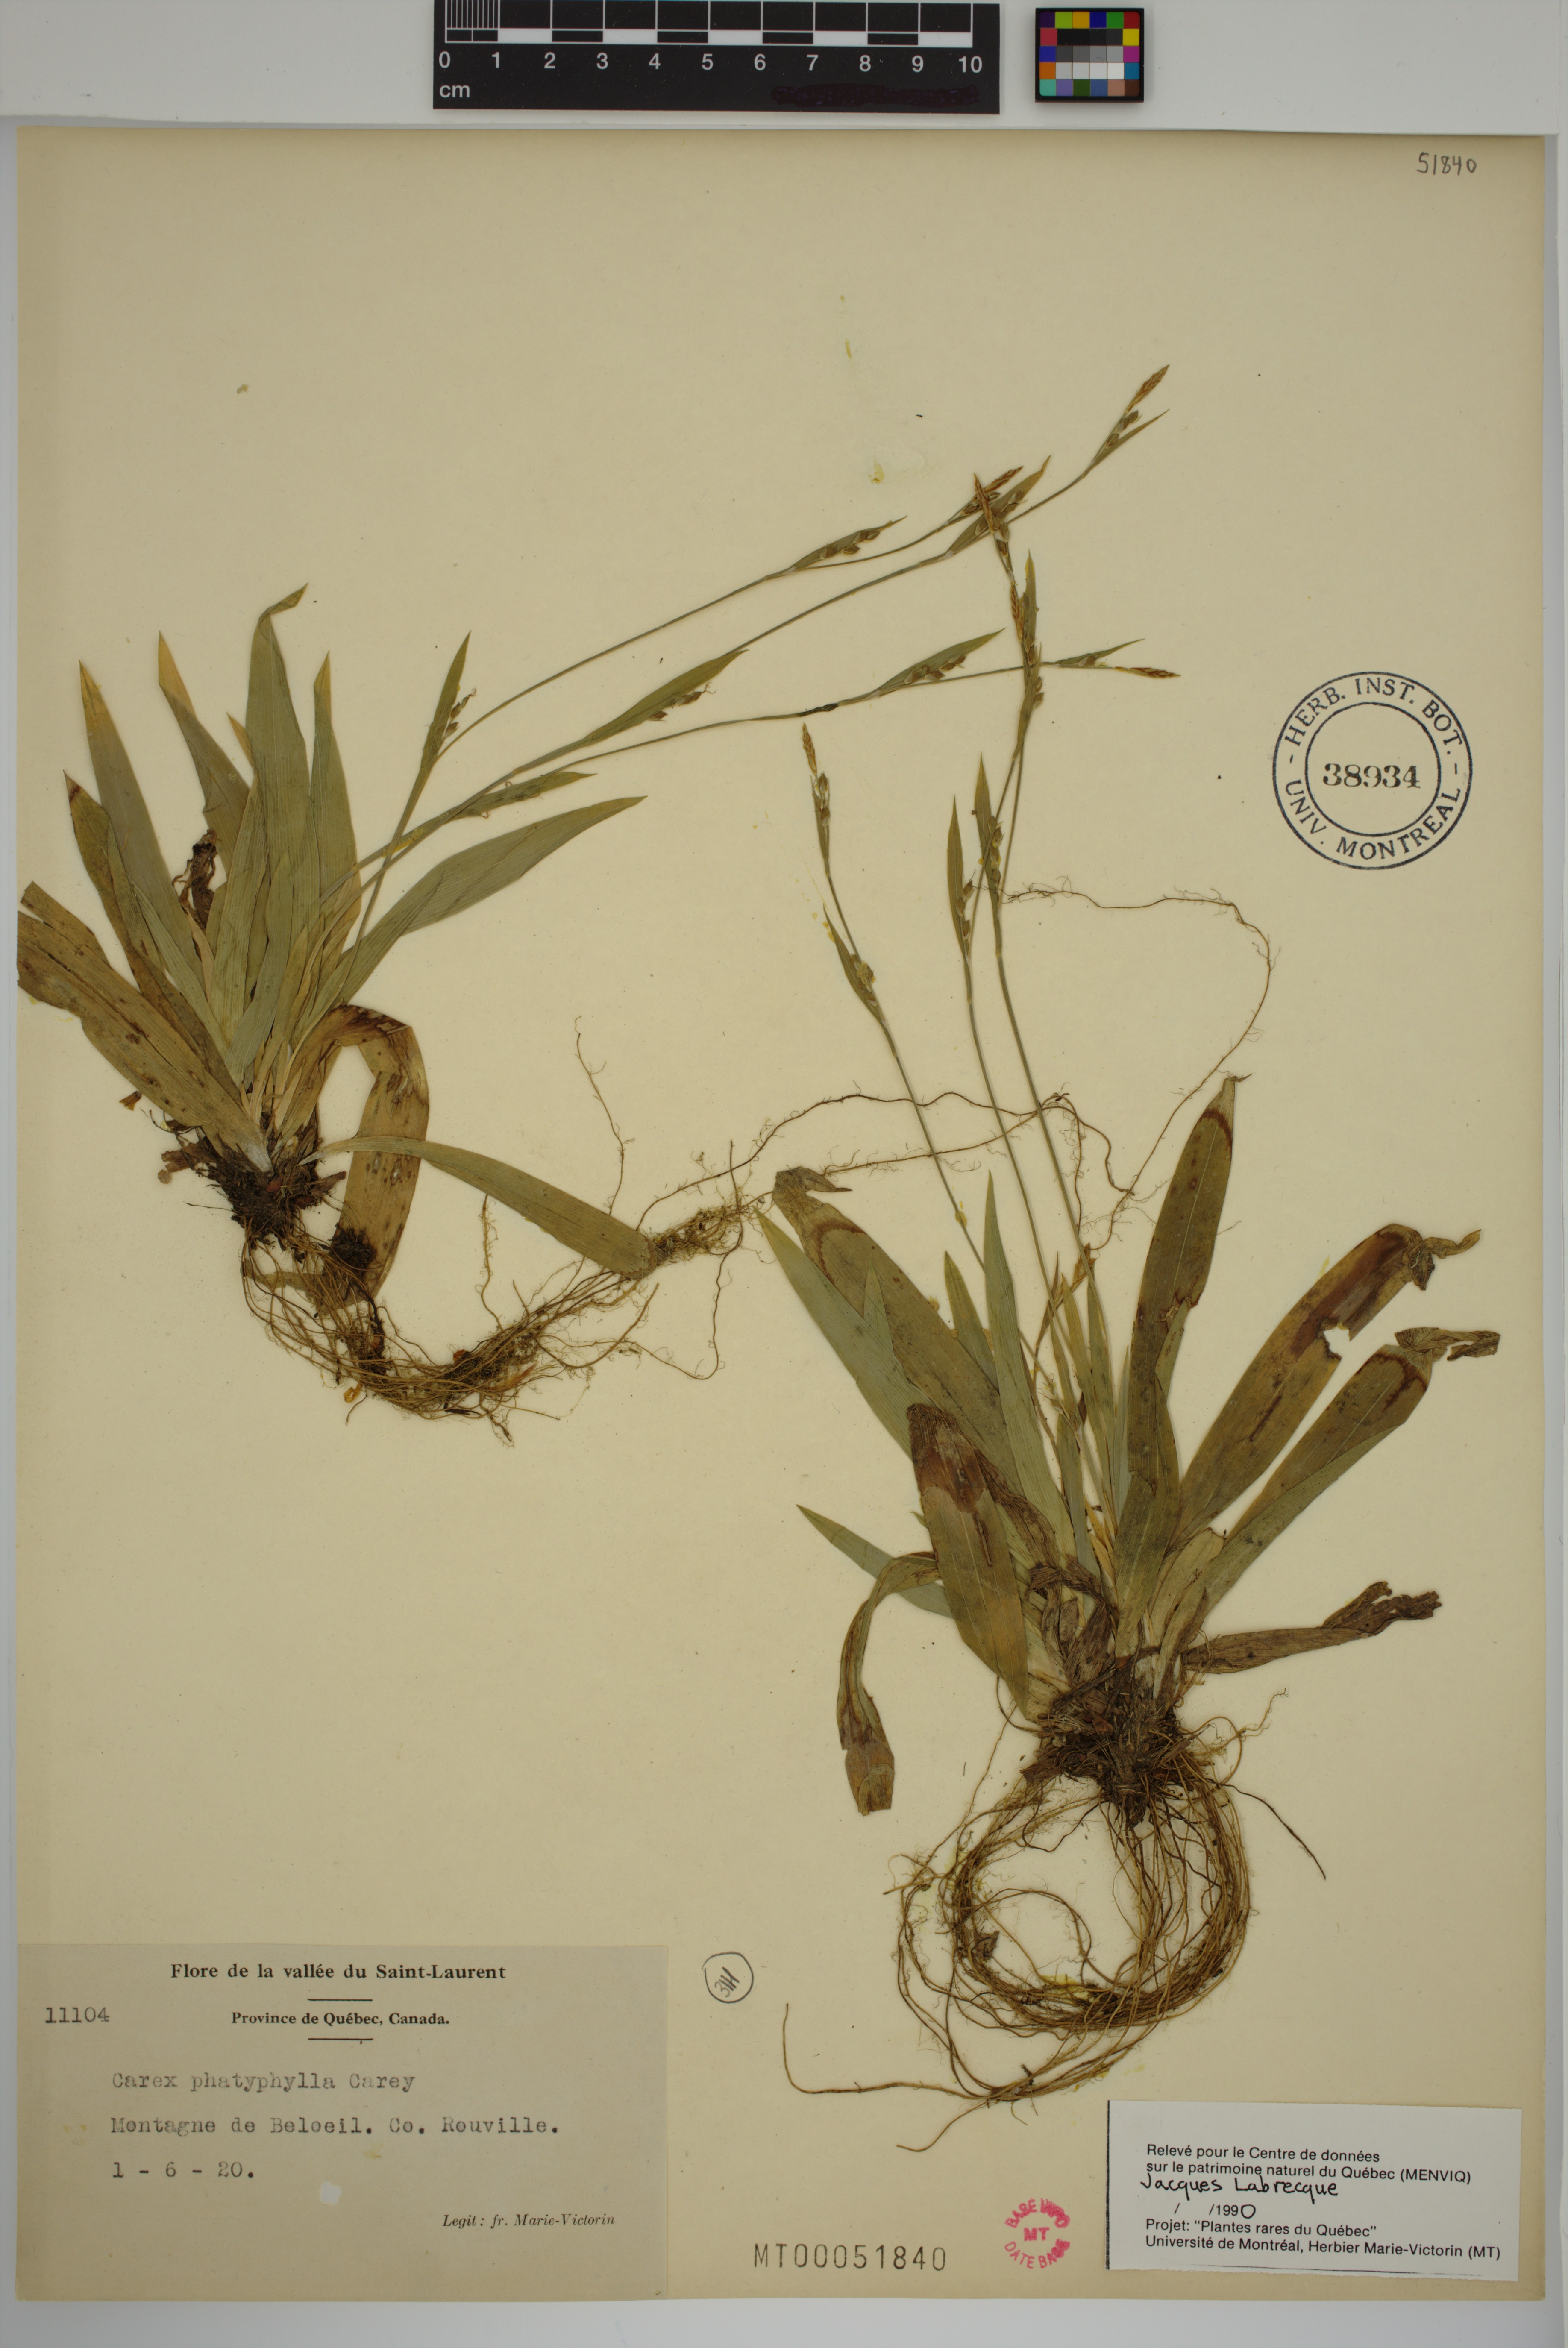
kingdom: Plantae
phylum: Tracheophyta
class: Liliopsida
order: Poales
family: Cyperaceae
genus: Carex
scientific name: Carex platyphylla
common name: Broad-leaved sedge
